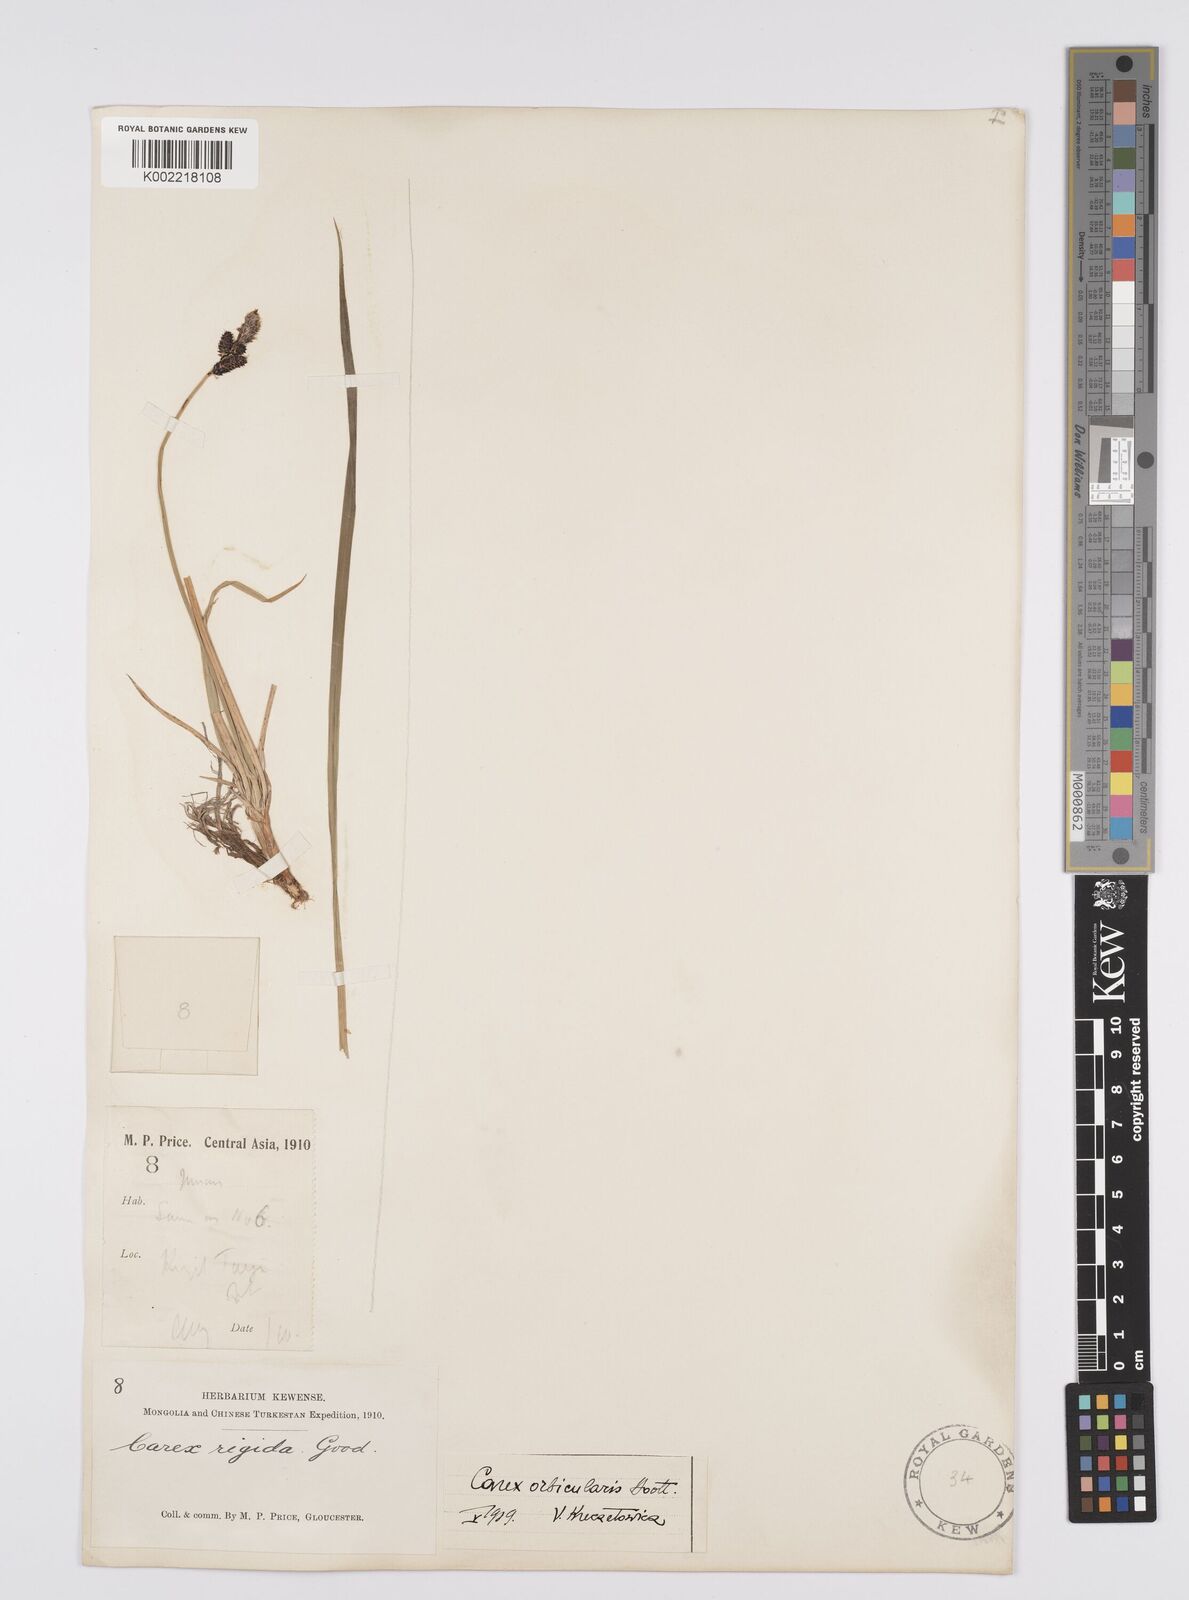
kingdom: Plantae
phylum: Tracheophyta
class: Liliopsida
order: Poales
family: Cyperaceae
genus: Carex
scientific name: Carex orbicularis
